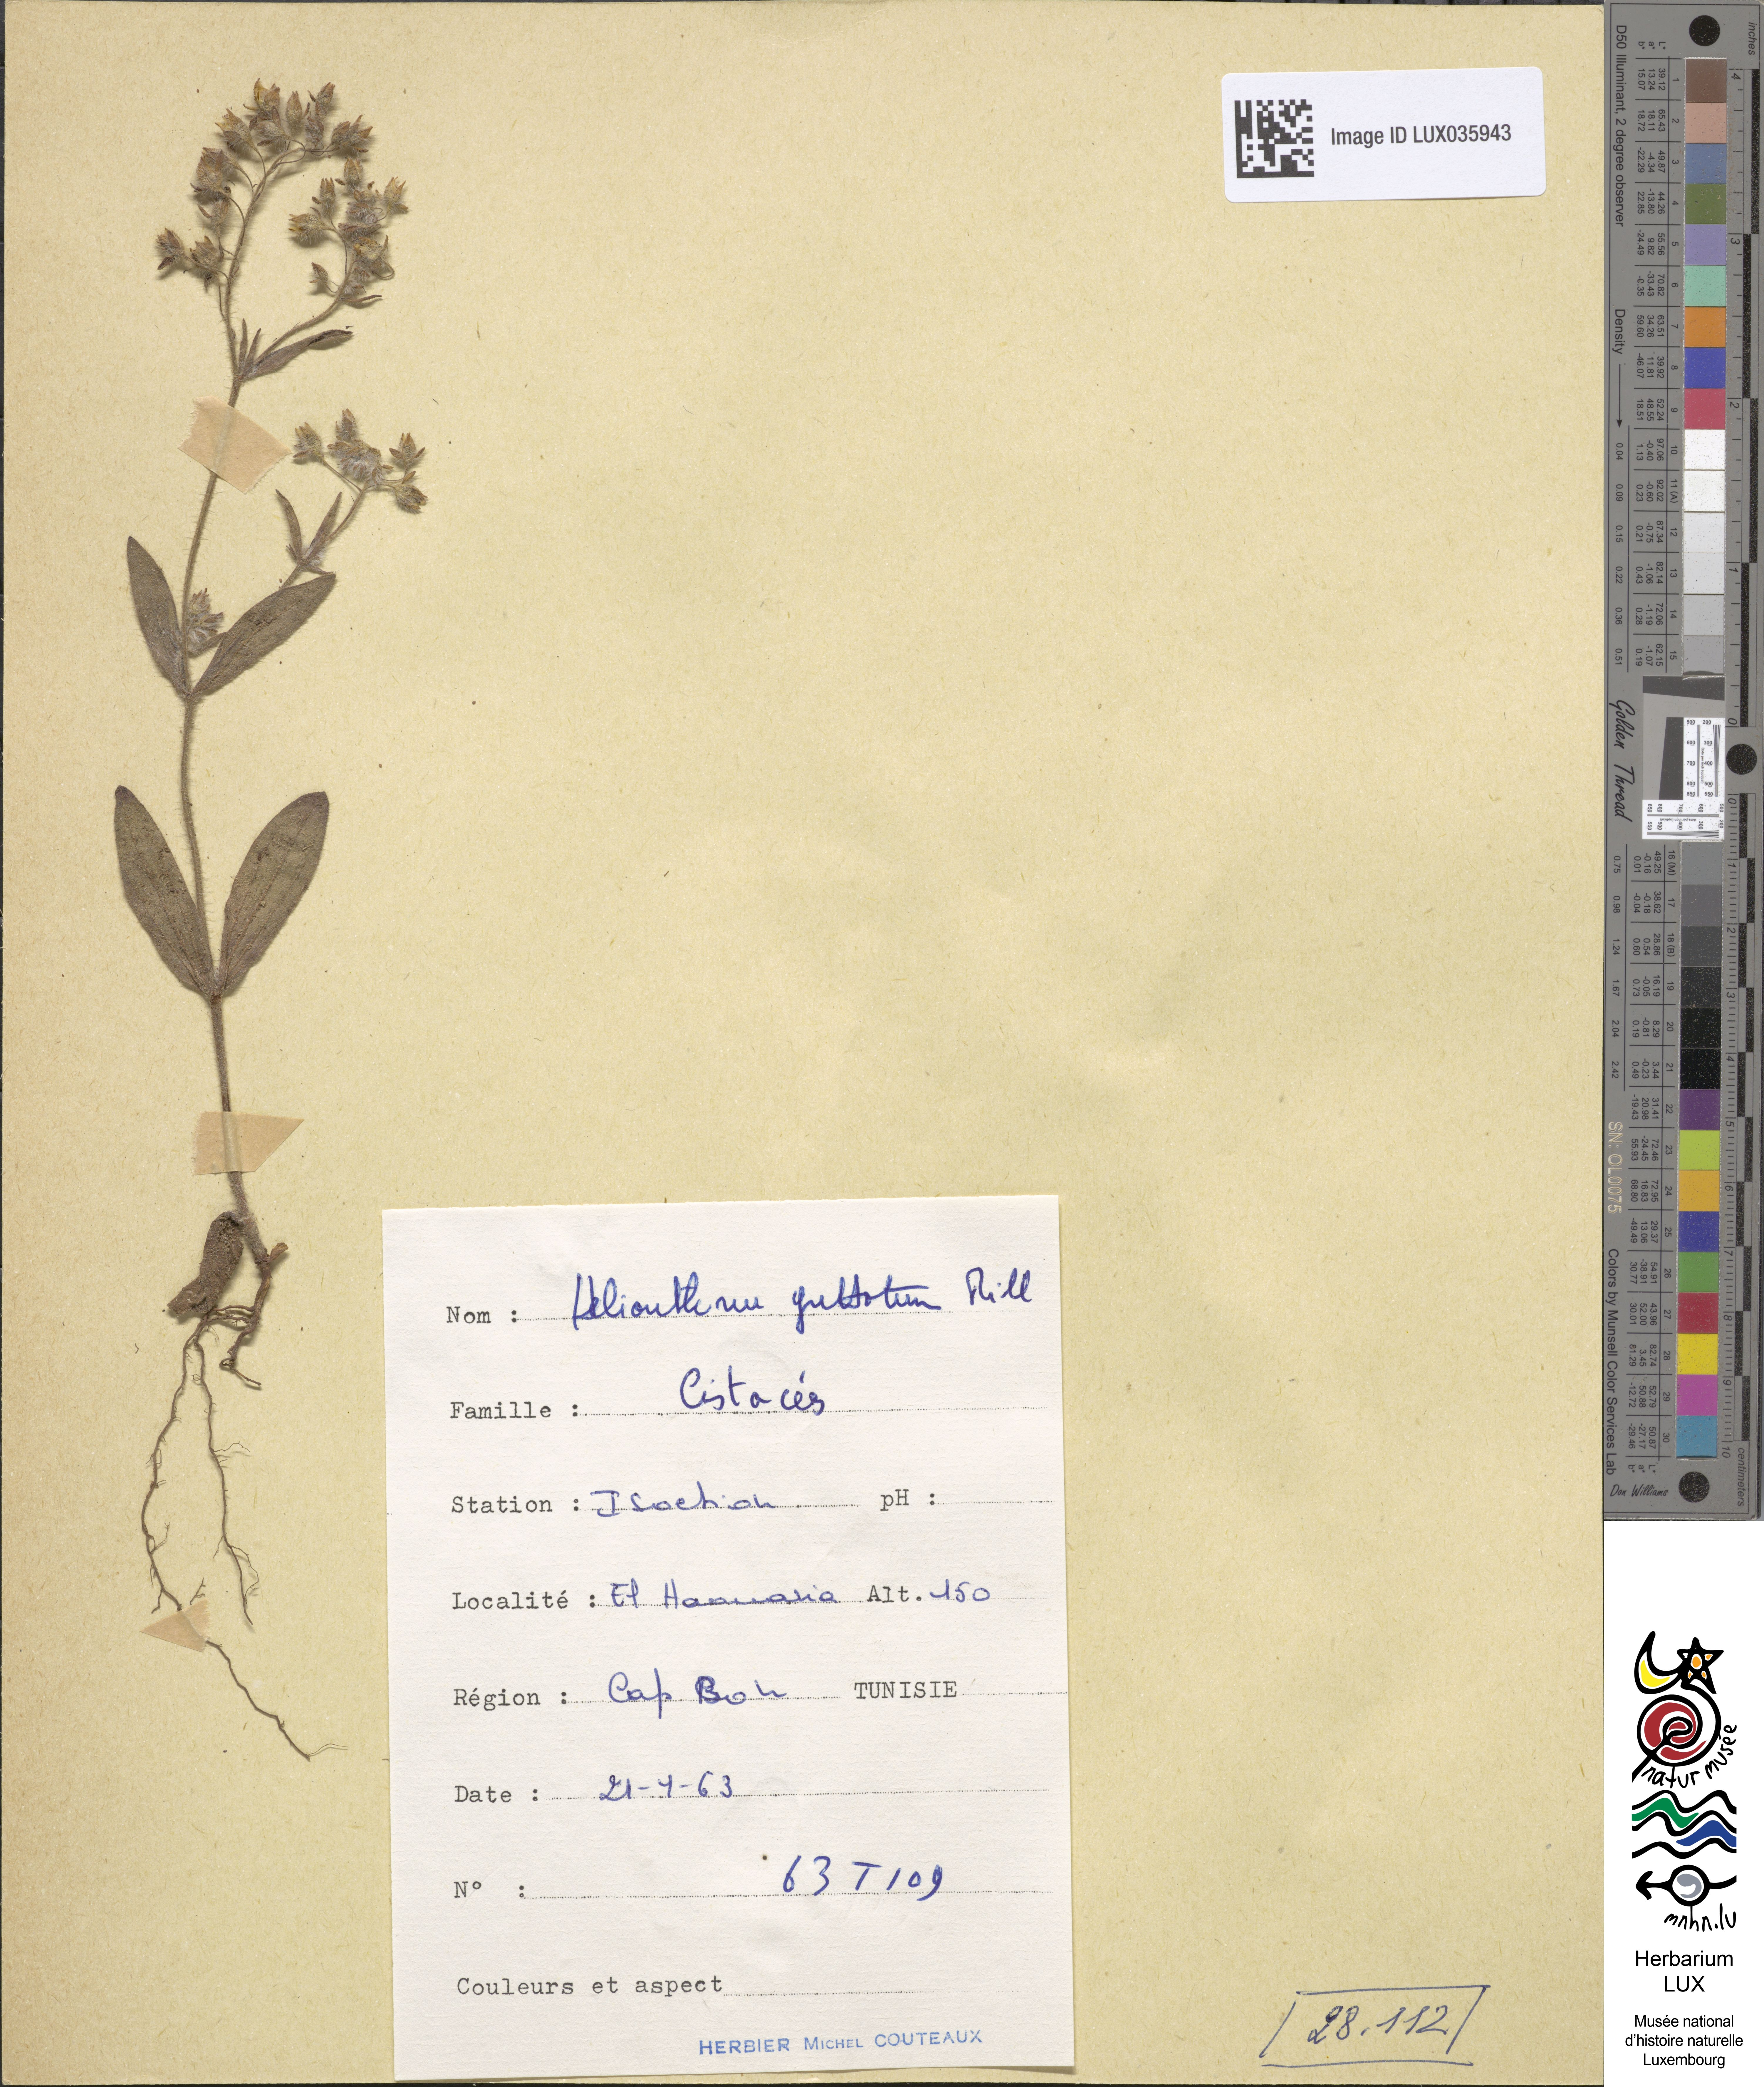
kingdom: Plantae
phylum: Tracheophyta
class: Magnoliopsida
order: Malvales
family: Cistaceae
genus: Tuberaria
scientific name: Tuberaria guttata
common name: Spotted rock-rose
